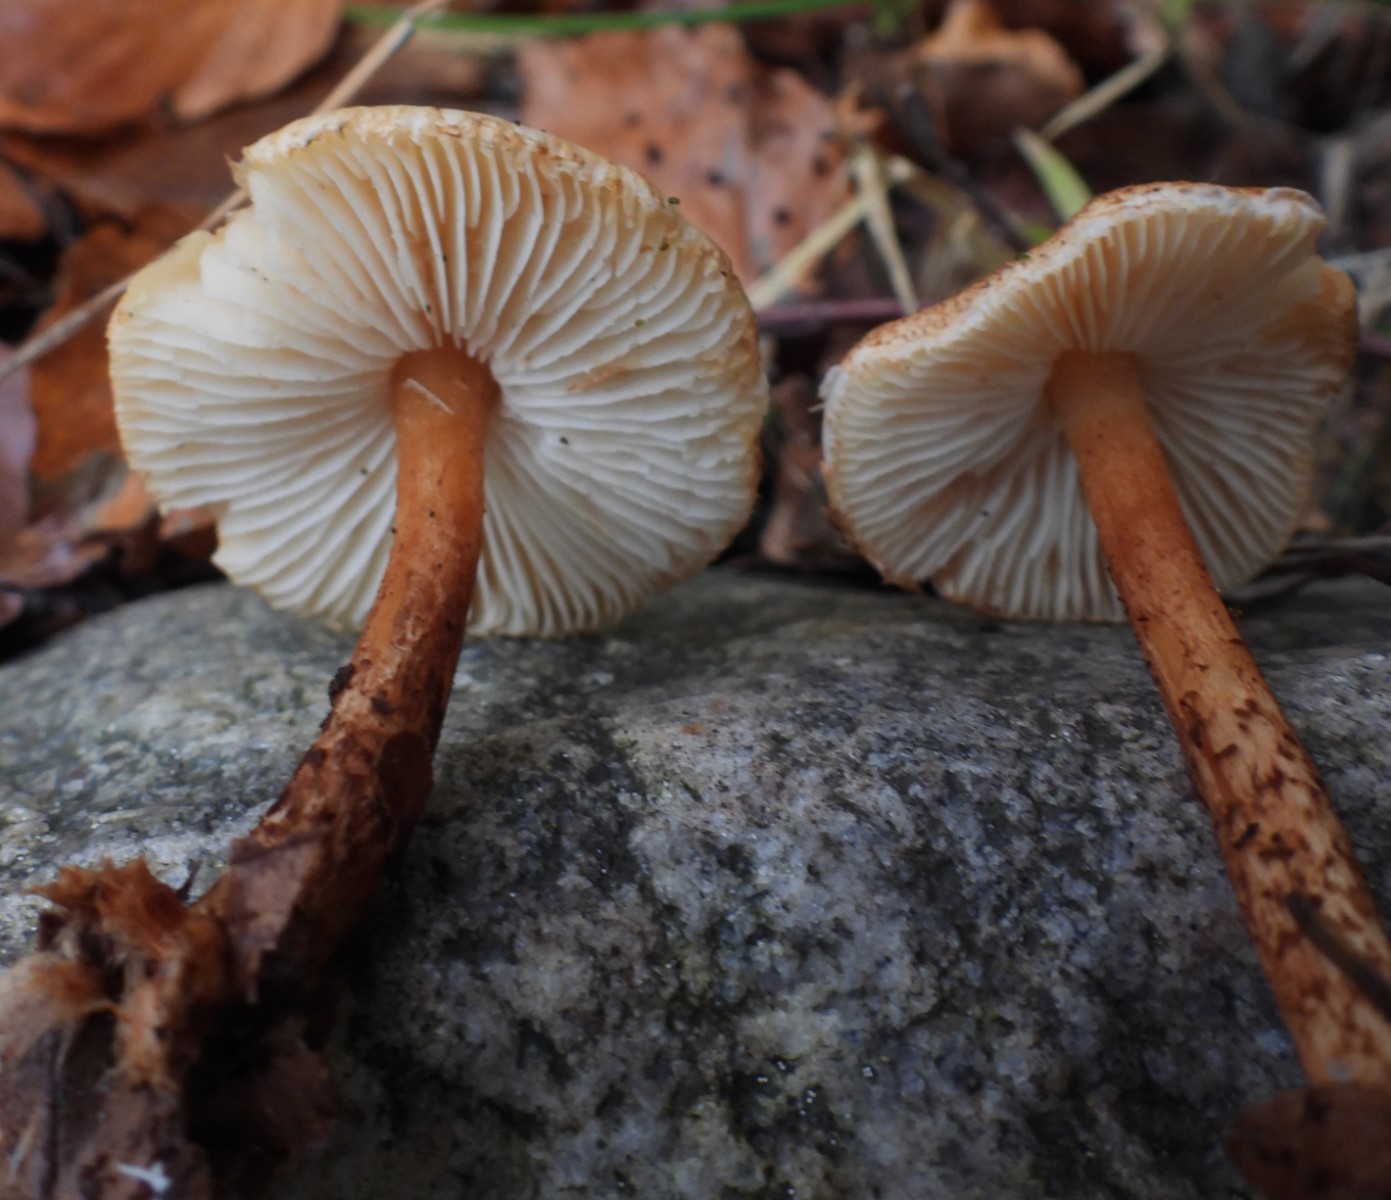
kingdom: Fungi
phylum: Basidiomycota
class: Agaricomycetes
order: Agaricales
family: Agaricaceae
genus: Lepiota
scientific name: Lepiota castanea
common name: kastaniebrun parasolhat
